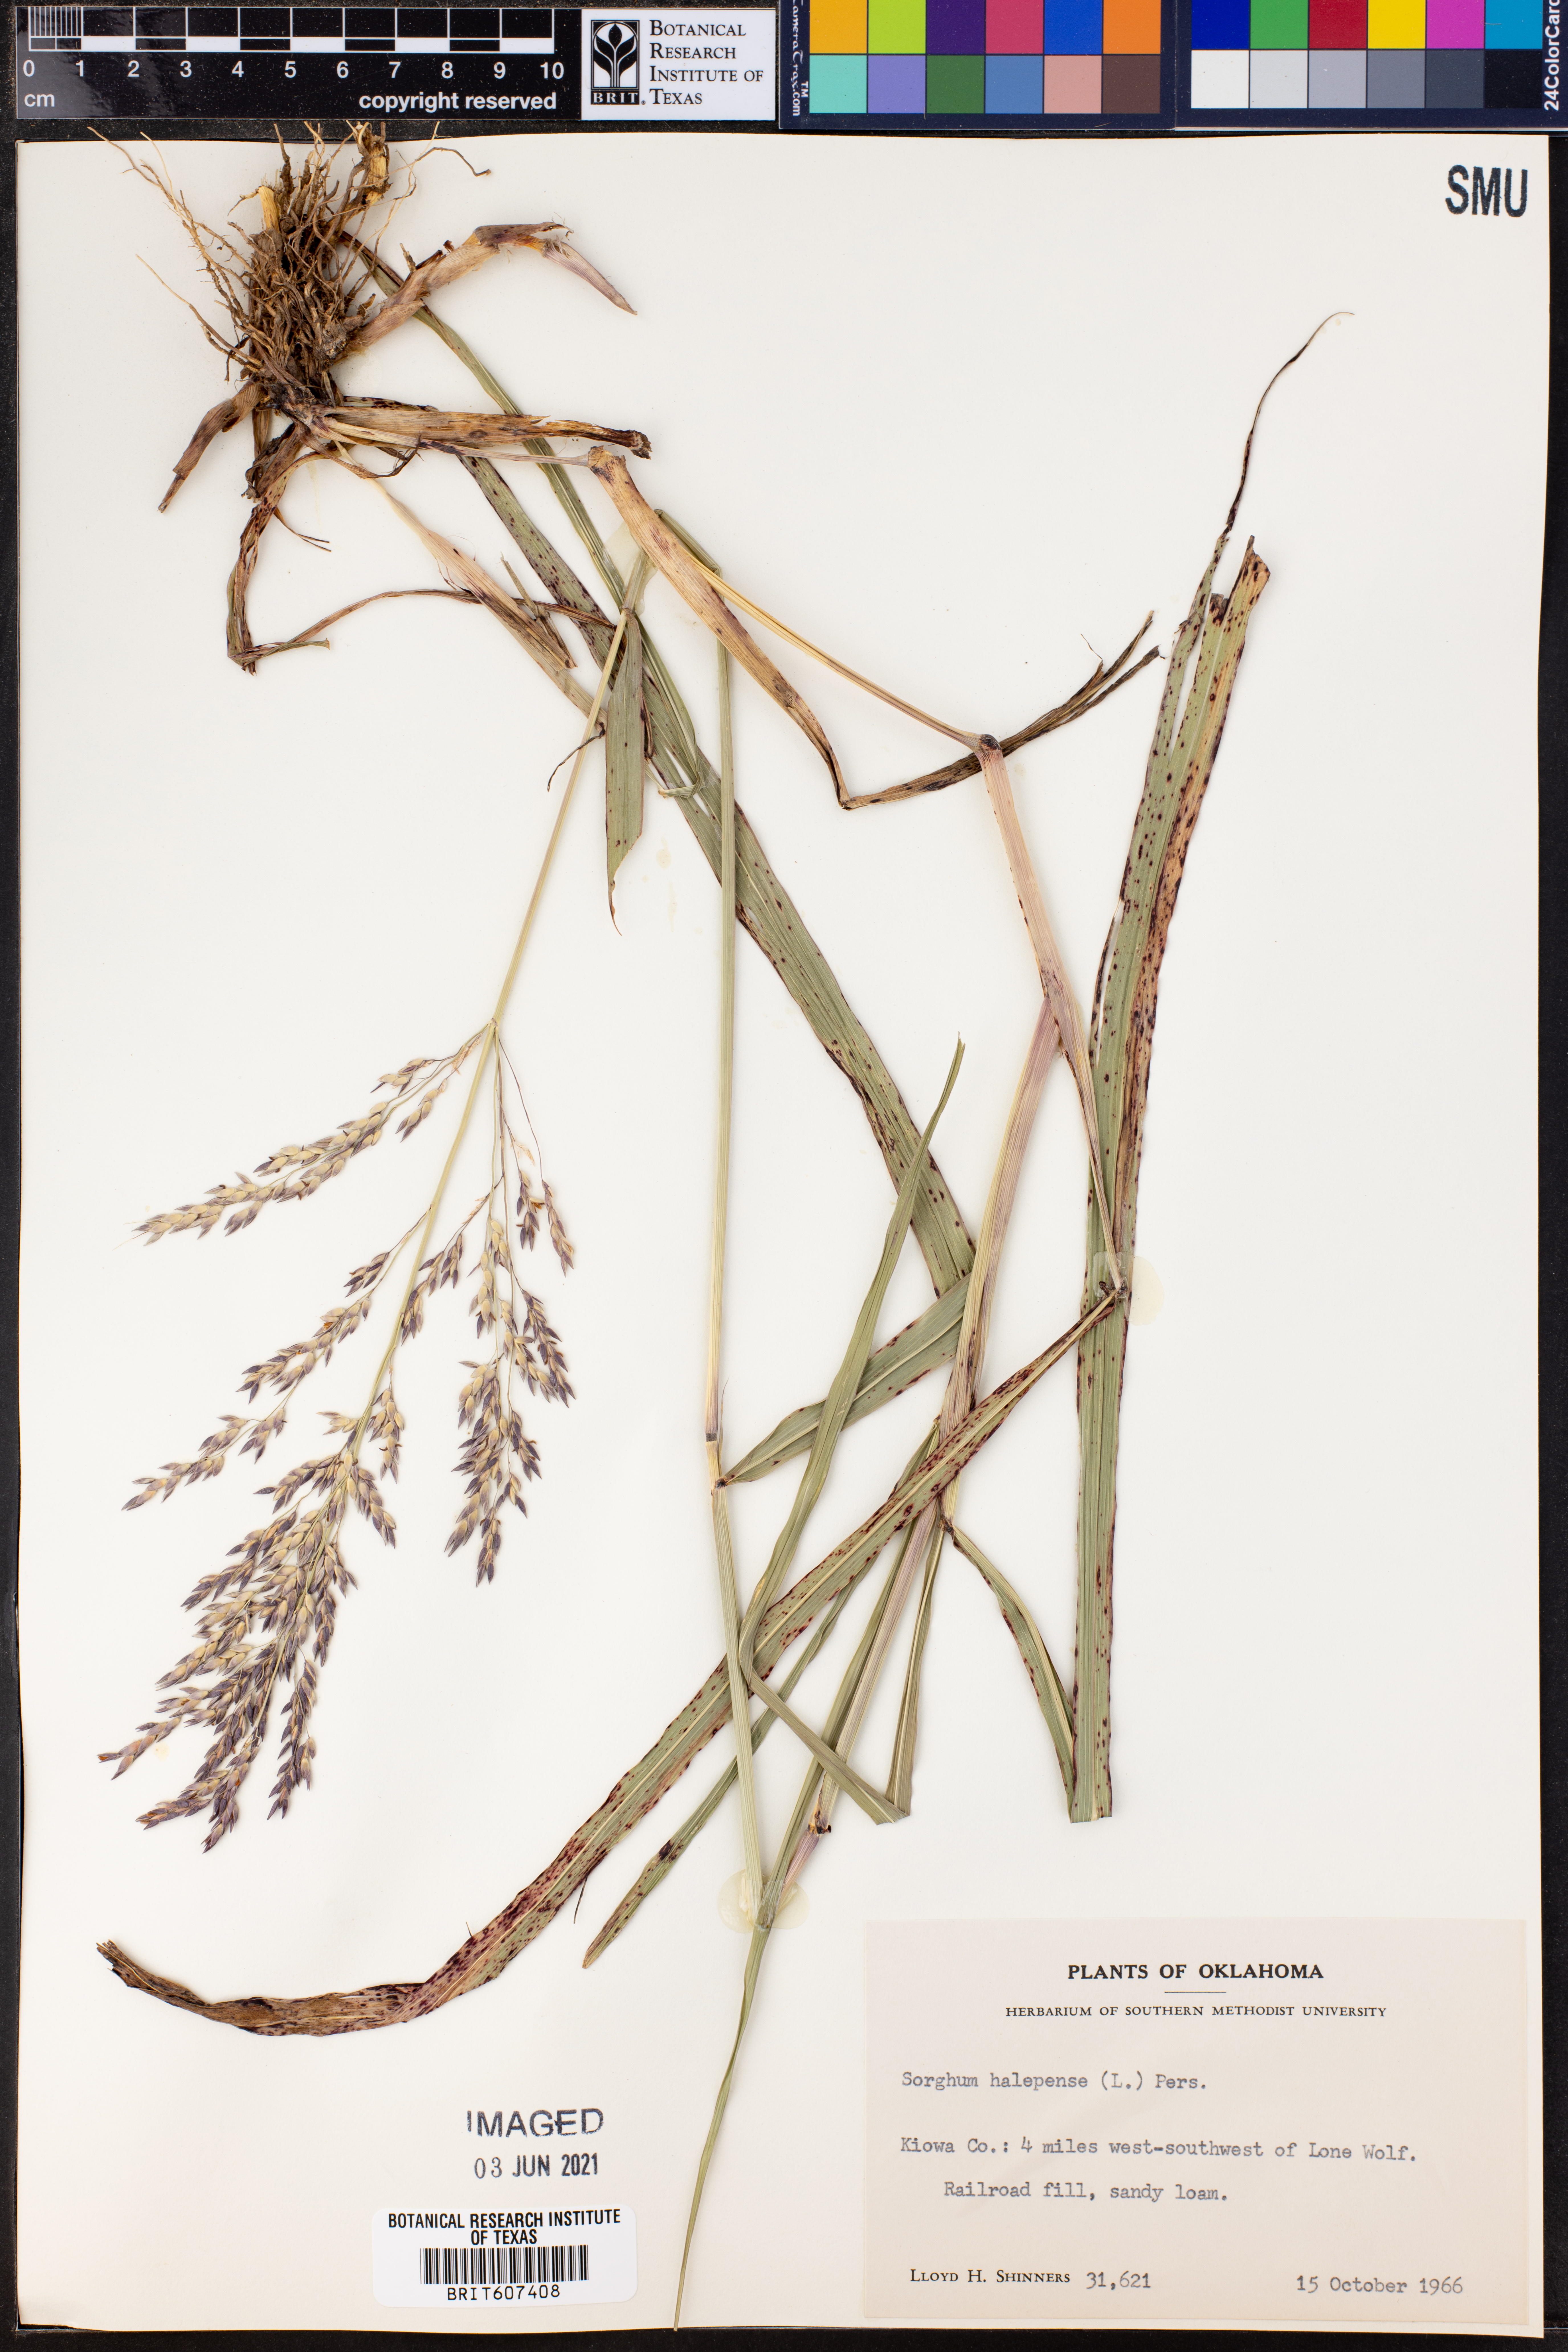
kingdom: Plantae
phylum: Tracheophyta
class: Liliopsida
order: Poales
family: Poaceae
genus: Sorghum
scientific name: Sorghum halepense
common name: Johnson-grass
